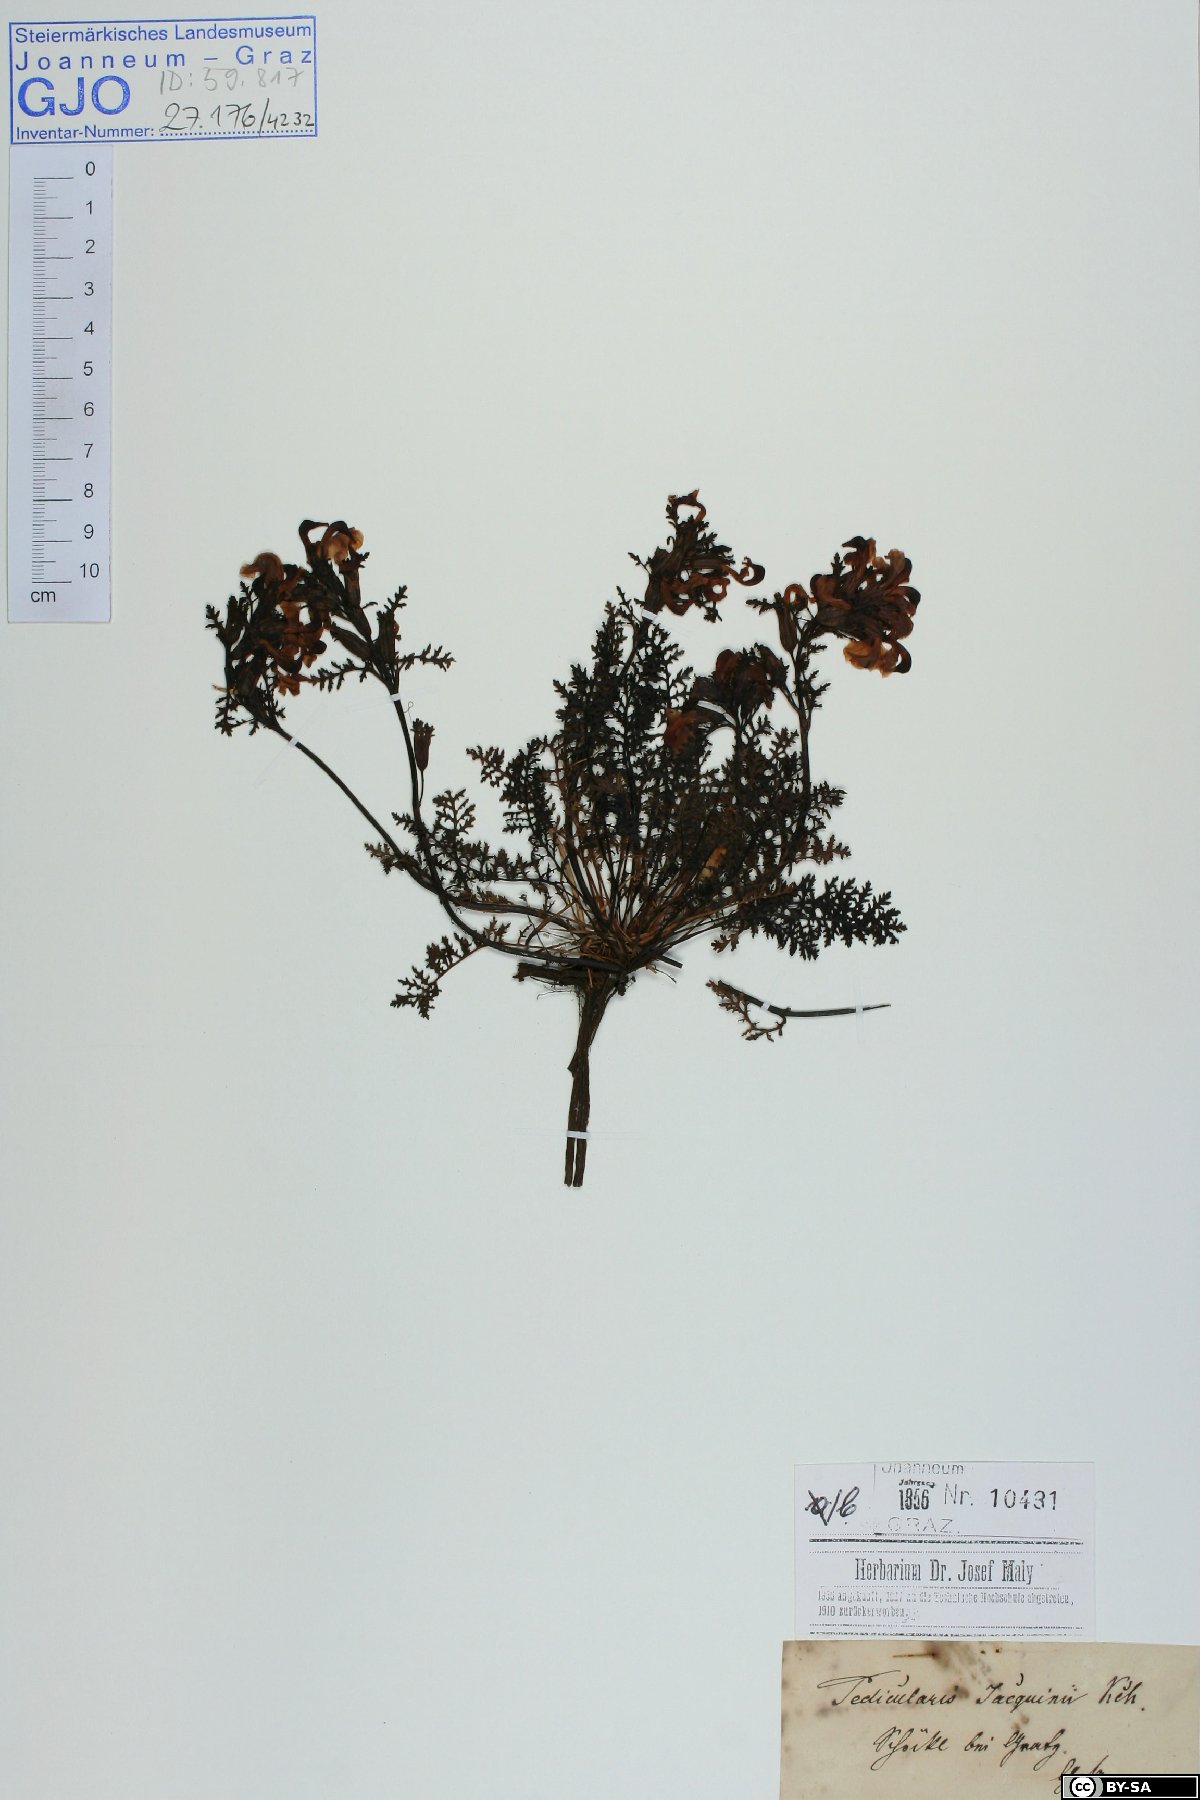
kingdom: Plantae
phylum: Tracheophyta
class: Magnoliopsida
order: Lamiales
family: Orobanchaceae
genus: Pedicularis
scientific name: Pedicularis rostratocapitata
